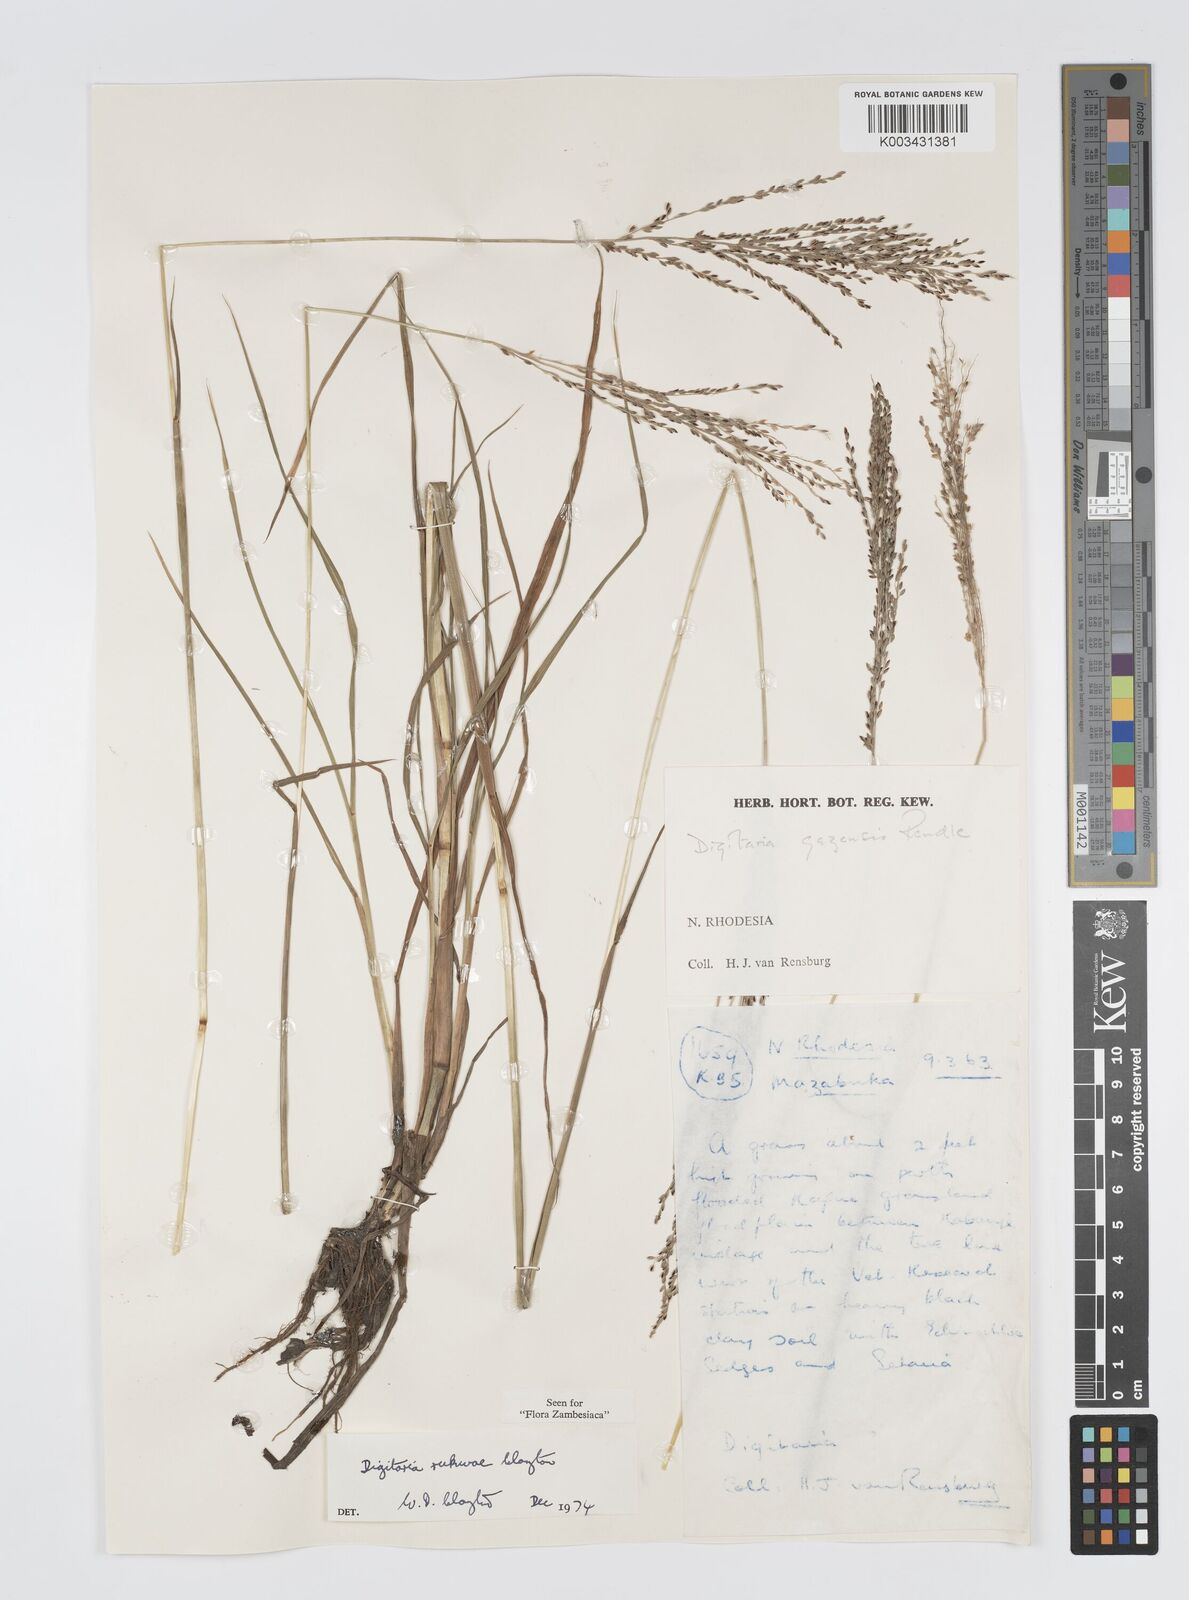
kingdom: Plantae
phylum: Tracheophyta
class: Liliopsida
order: Poales
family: Poaceae
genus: Digitaria
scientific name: Digitaria rukwae
